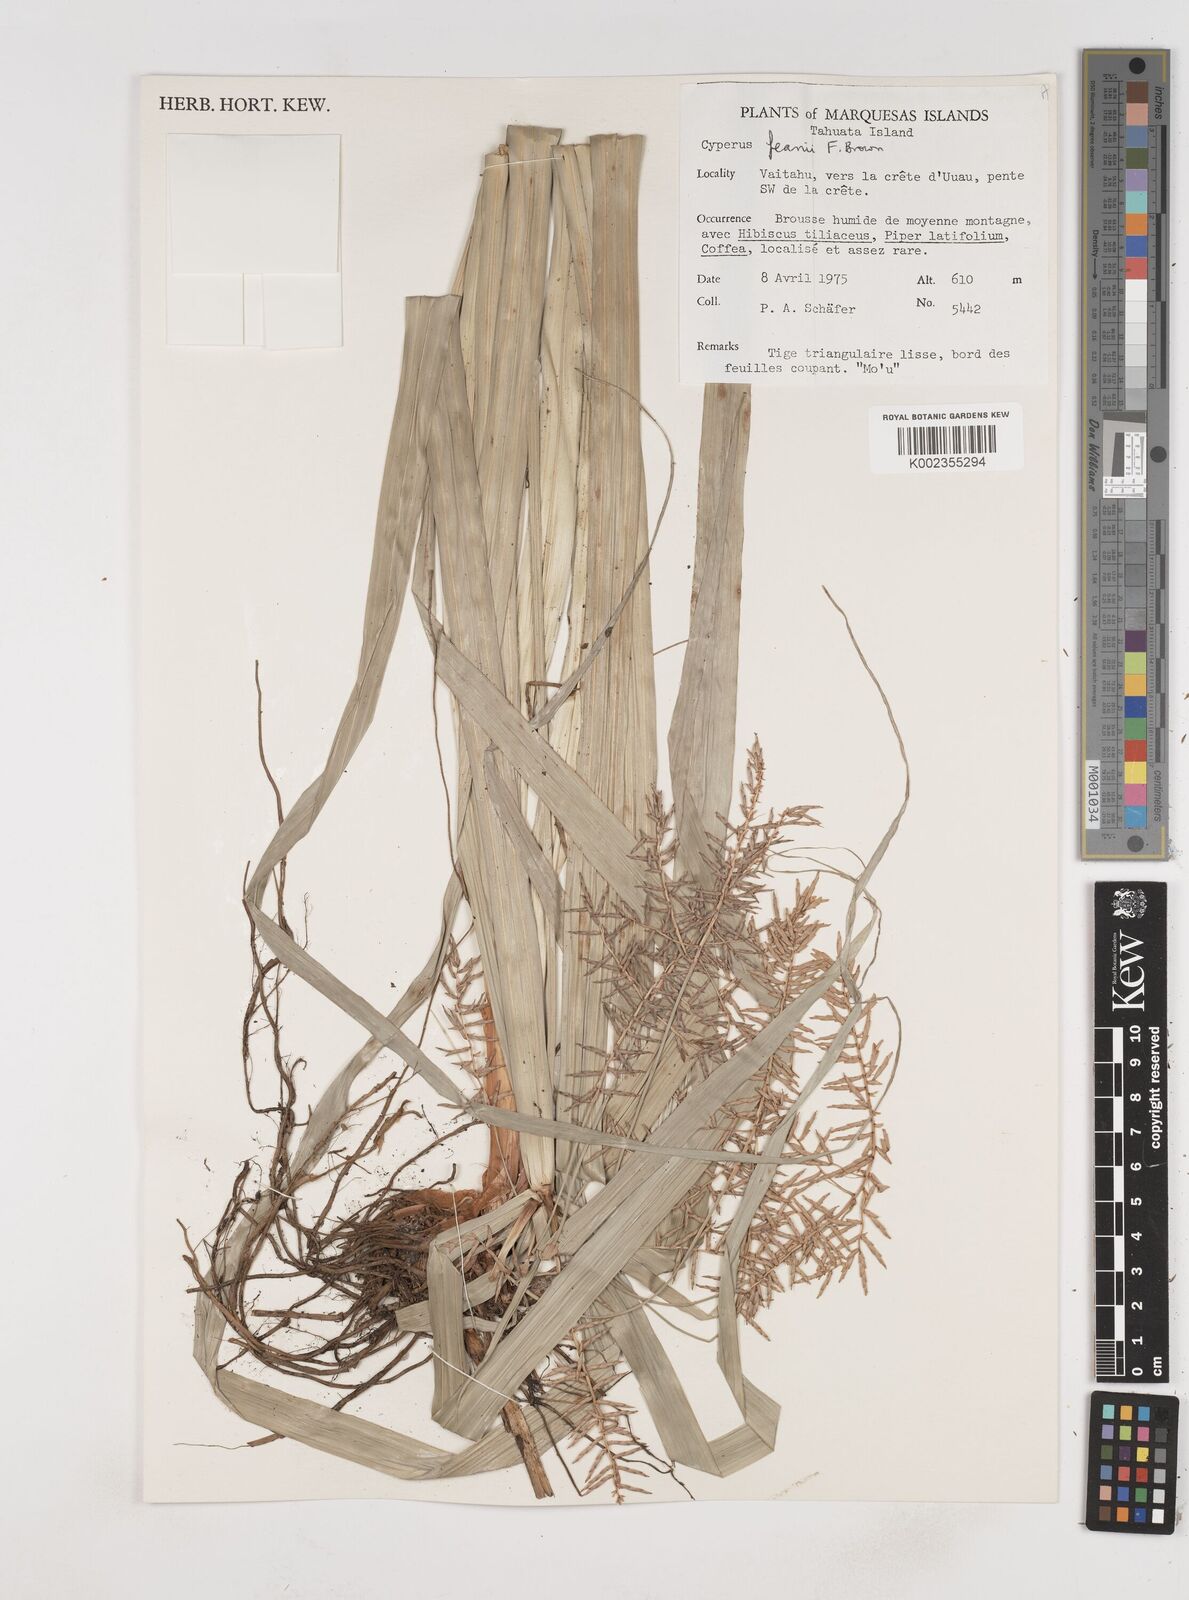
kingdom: Plantae
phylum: Tracheophyta
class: Liliopsida
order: Poales
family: Cyperaceae
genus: Cyperus
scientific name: Cyperus feani
